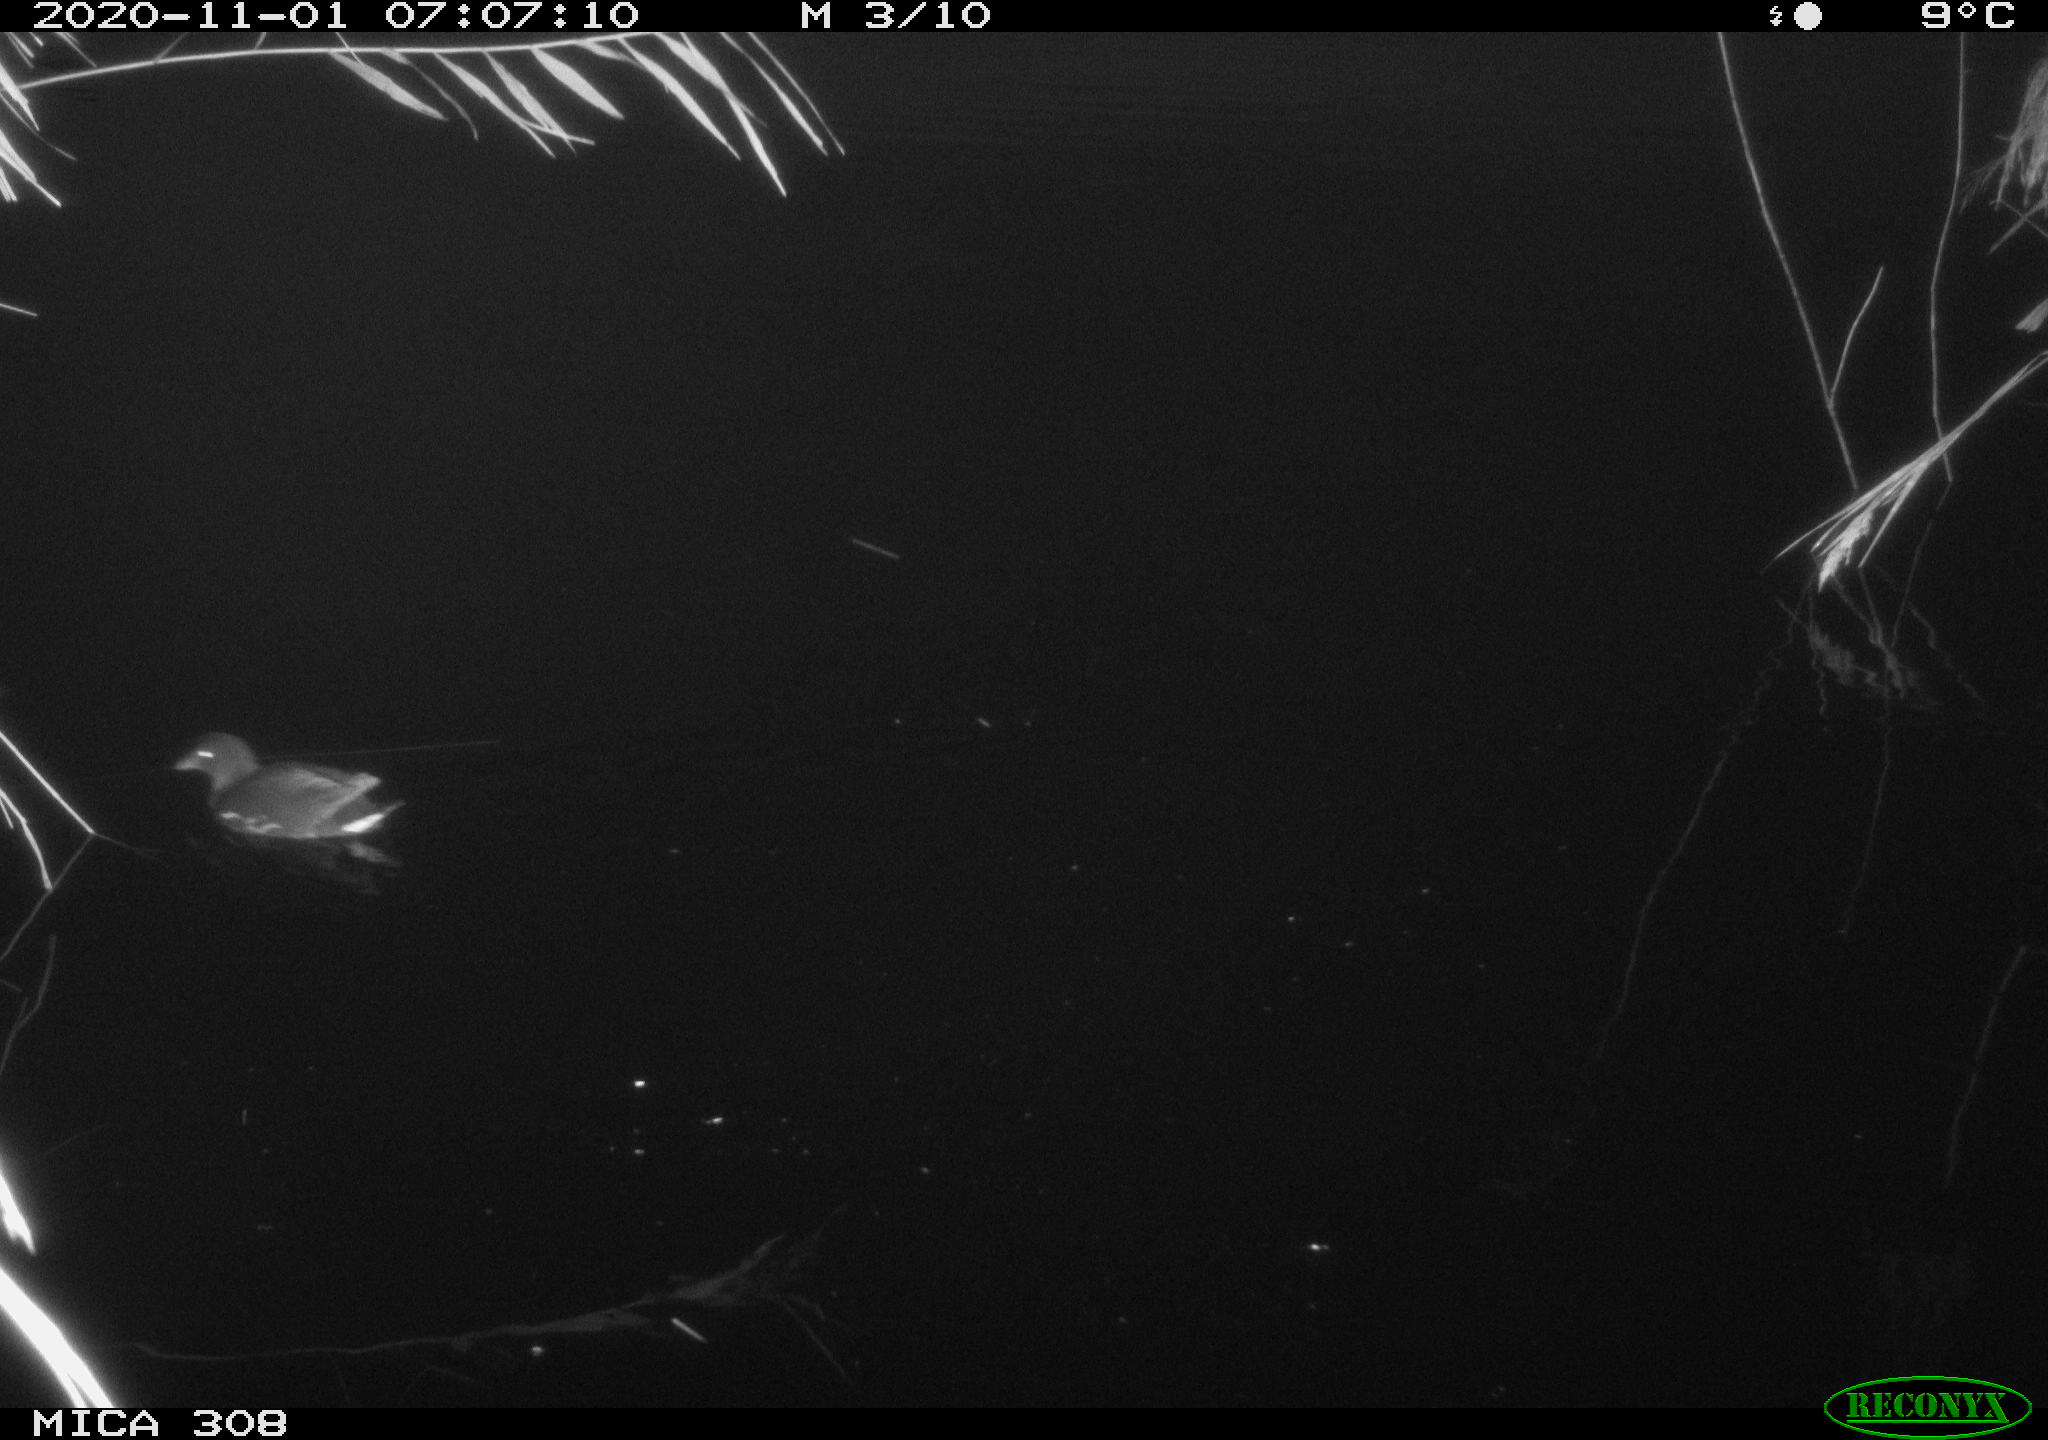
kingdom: Animalia
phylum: Chordata
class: Aves
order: Gruiformes
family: Rallidae
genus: Gallinula
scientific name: Gallinula chloropus
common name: Common moorhen
